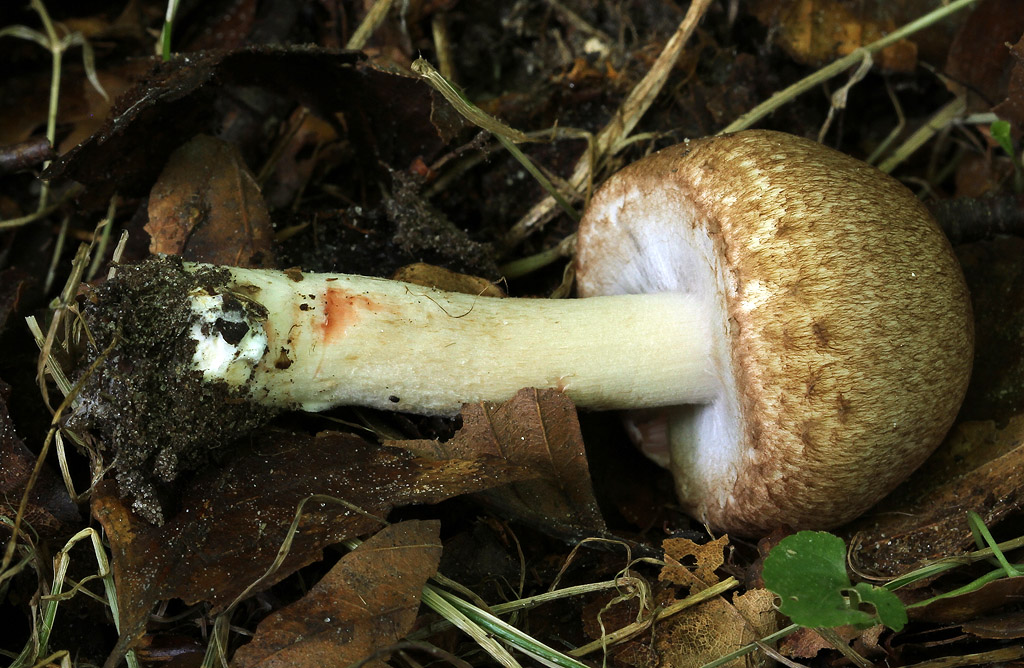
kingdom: Fungi
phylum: Basidiomycota
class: Agaricomycetes
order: Agaricales
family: Agaricaceae
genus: Agaricus
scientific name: Agaricus langei
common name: stor blod-champignon
